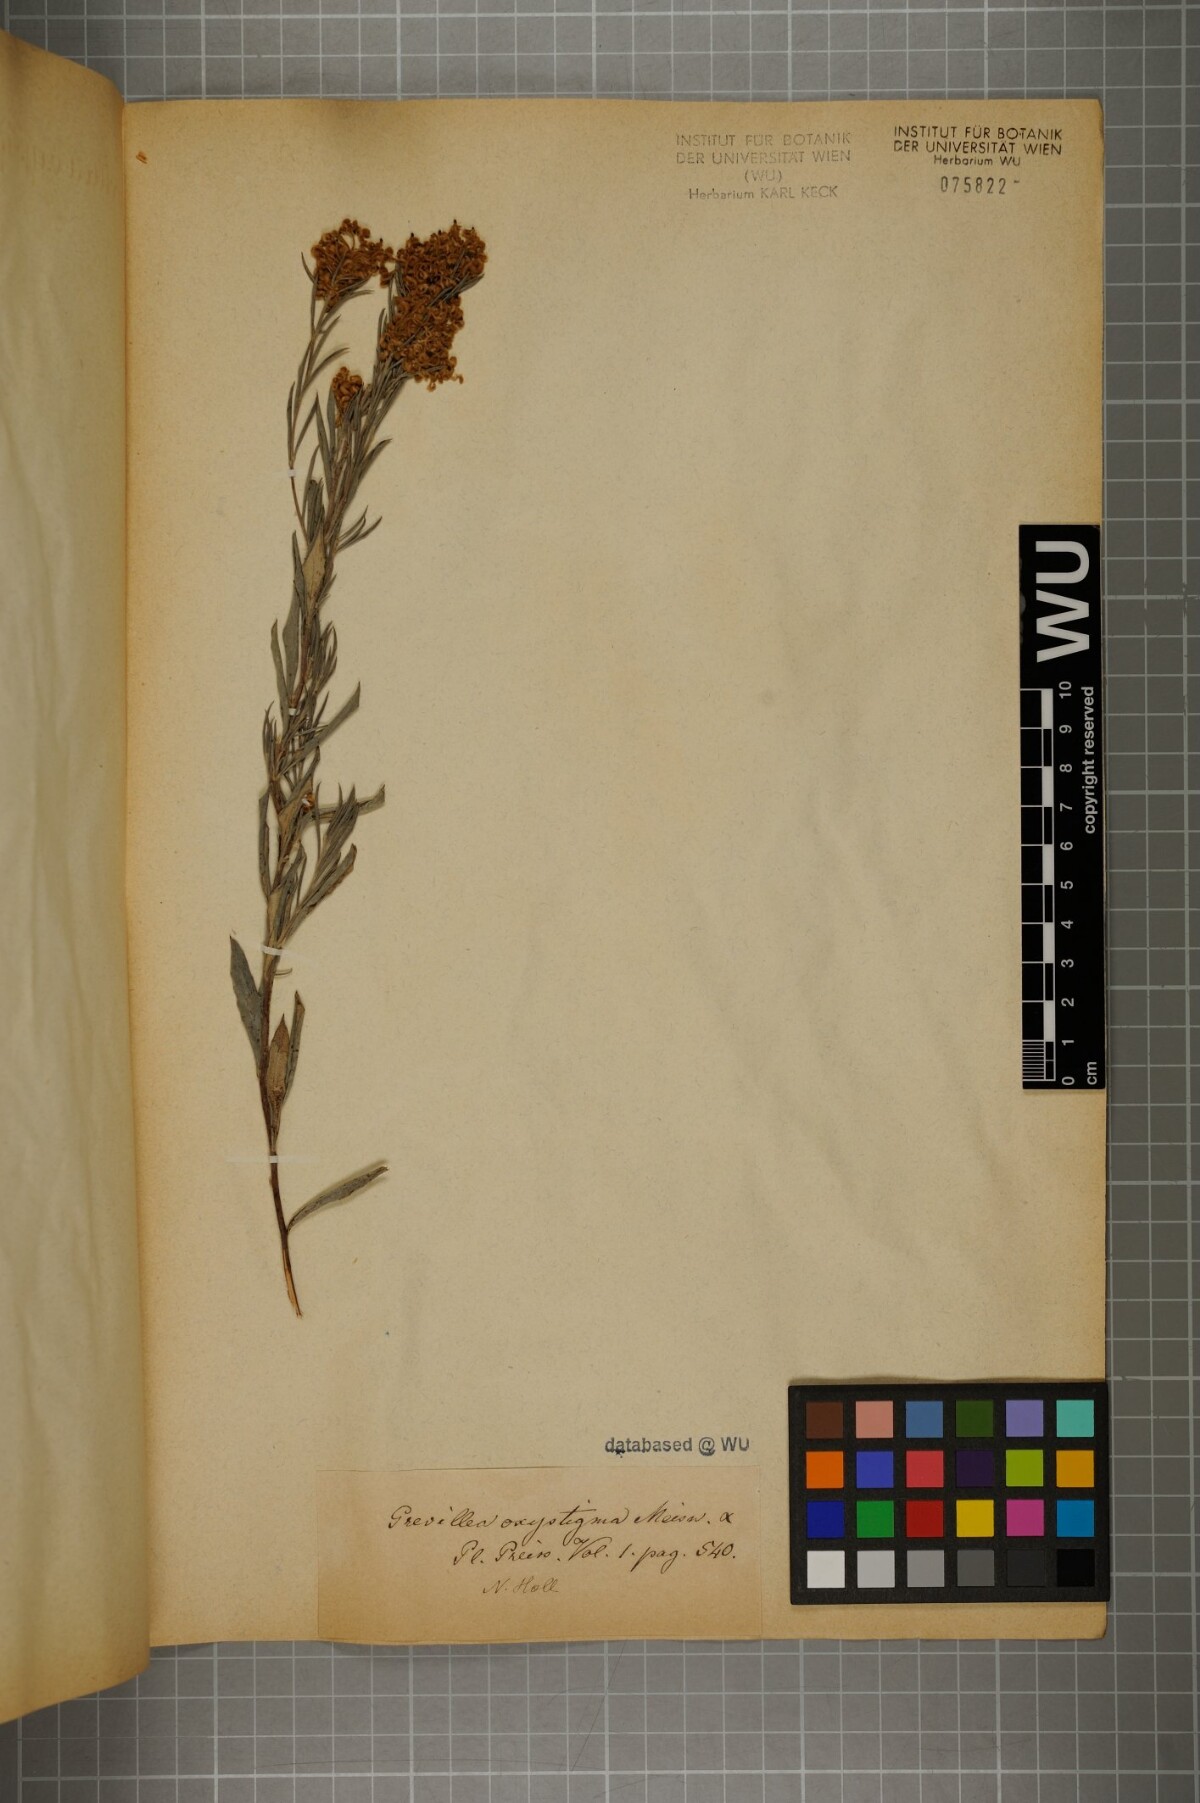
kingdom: Plantae
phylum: Tracheophyta
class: Magnoliopsida
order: Proteales
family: Proteaceae
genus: Grevillea
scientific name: Grevillea pilulifera
